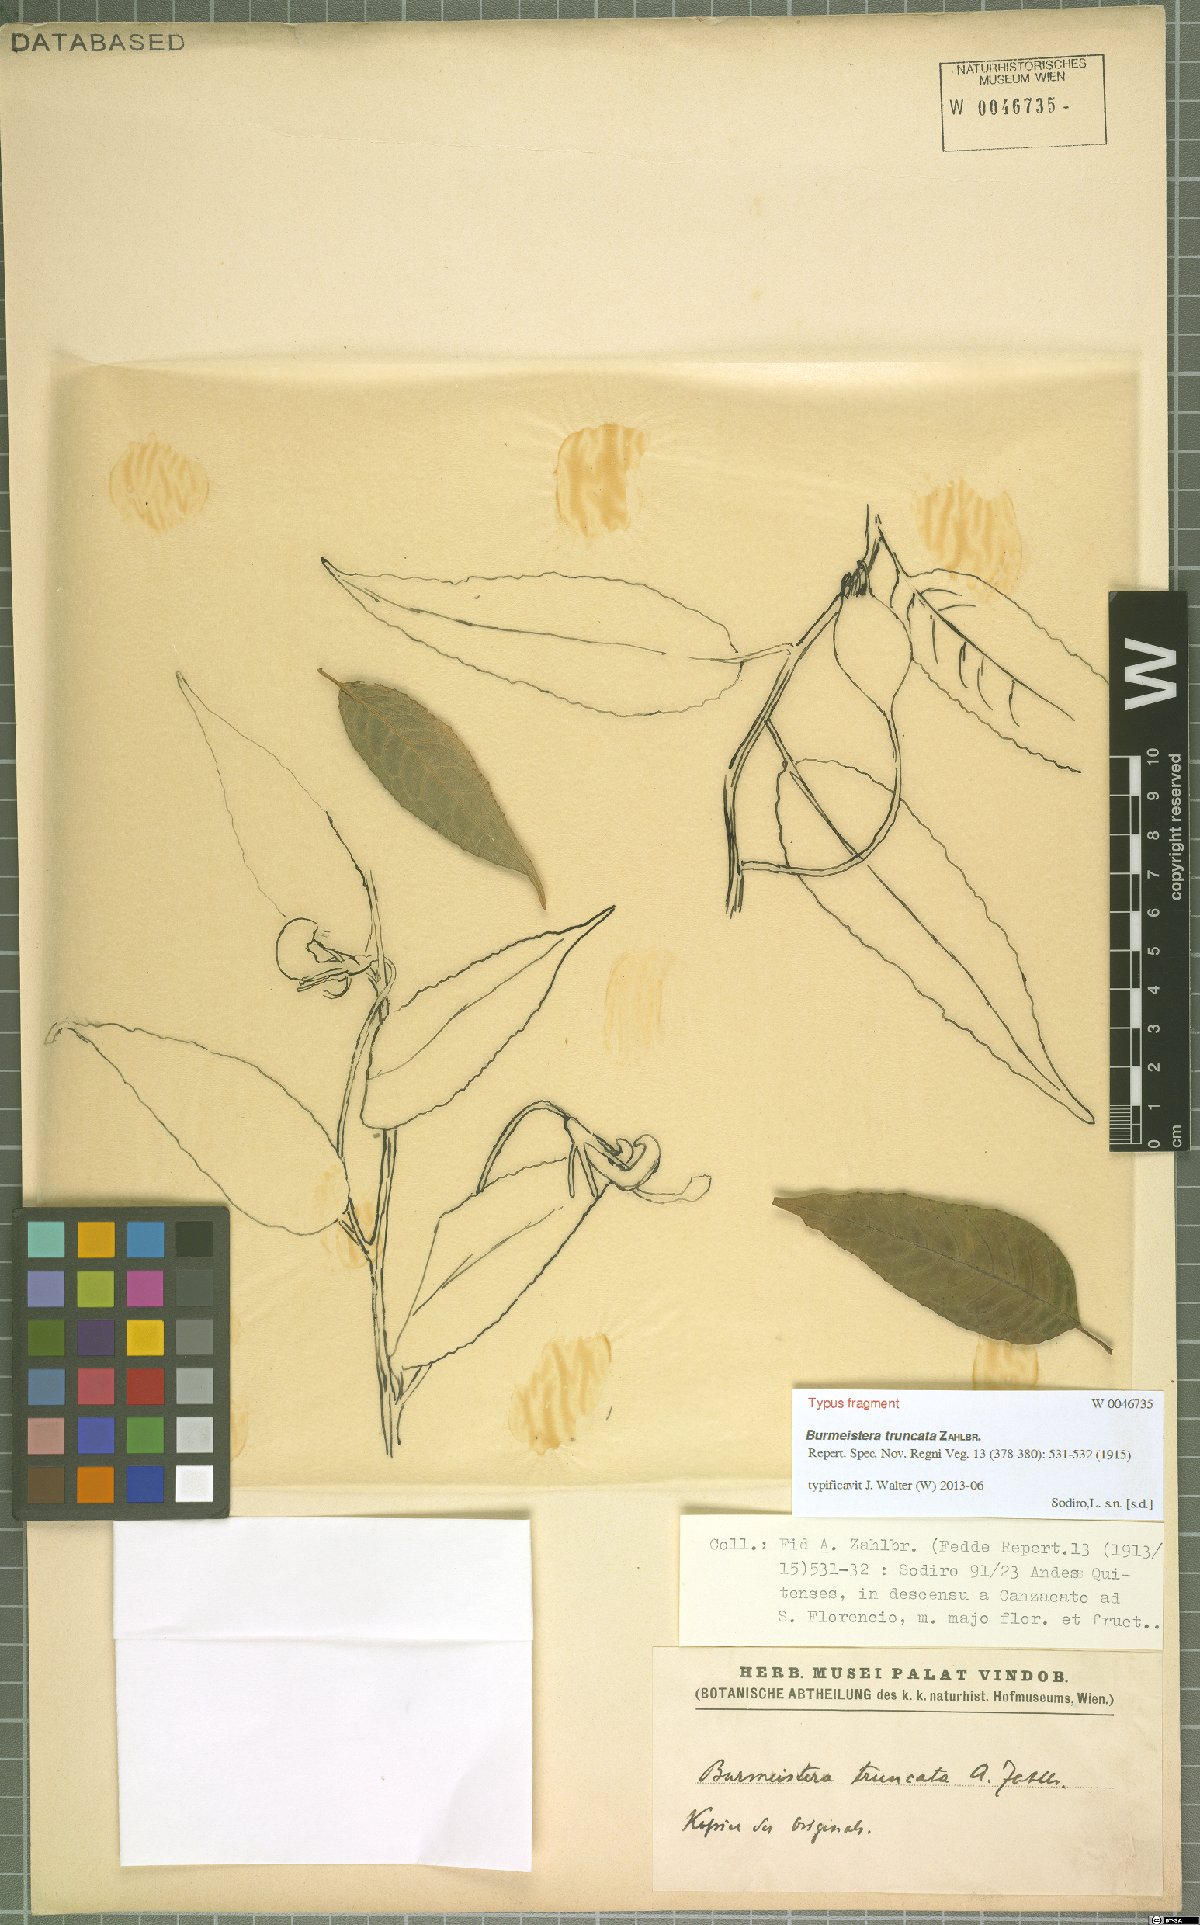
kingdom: Plantae
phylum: Tracheophyta
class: Magnoliopsida
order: Asterales
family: Campanulaceae
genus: Burmeistera
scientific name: Burmeistera truncata
